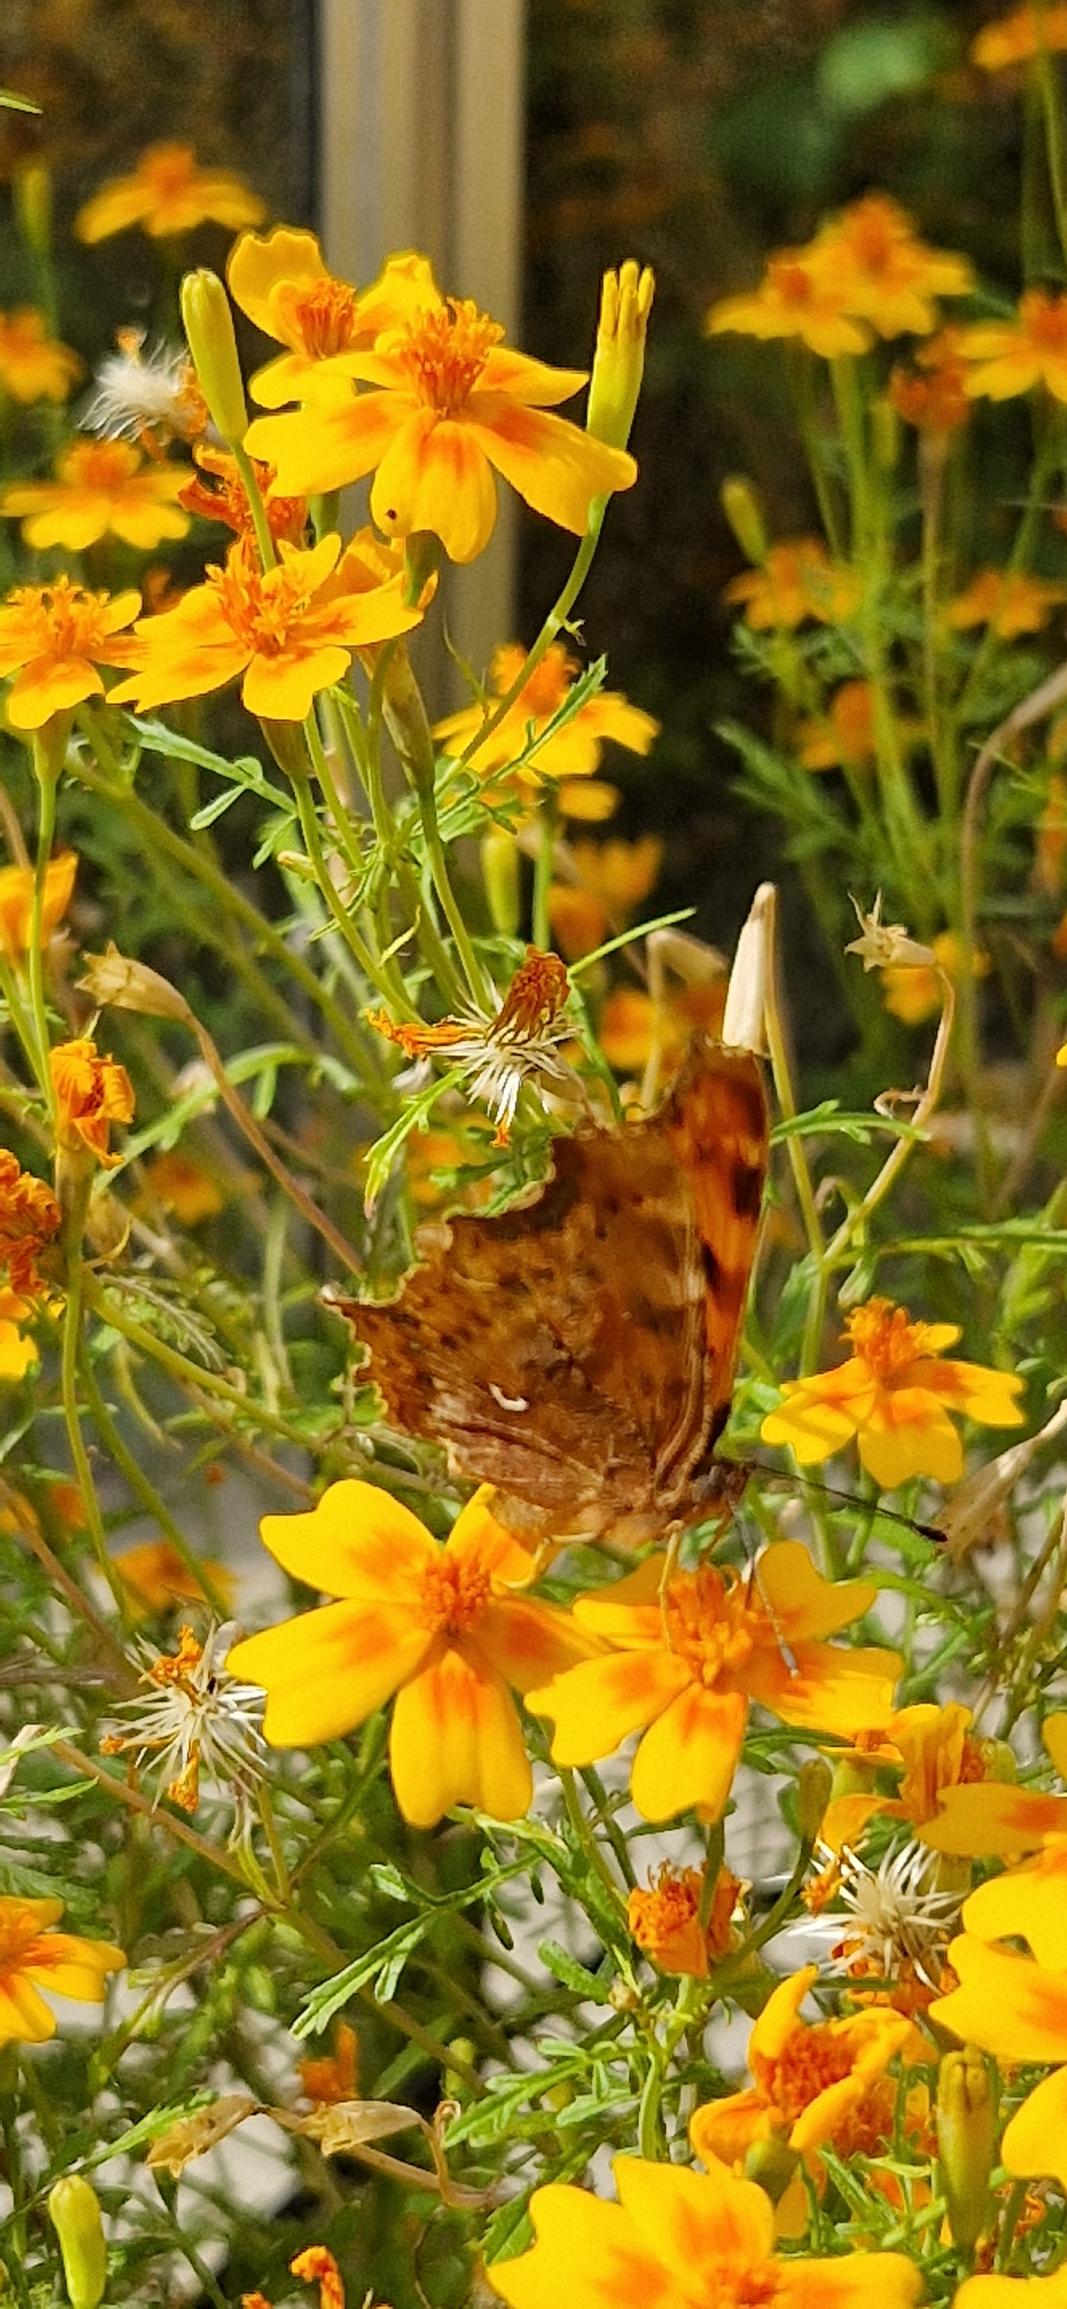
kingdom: Animalia
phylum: Arthropoda
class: Insecta
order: Lepidoptera
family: Nymphalidae
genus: Polygonia
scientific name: Polygonia c-album
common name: Det hvide C
